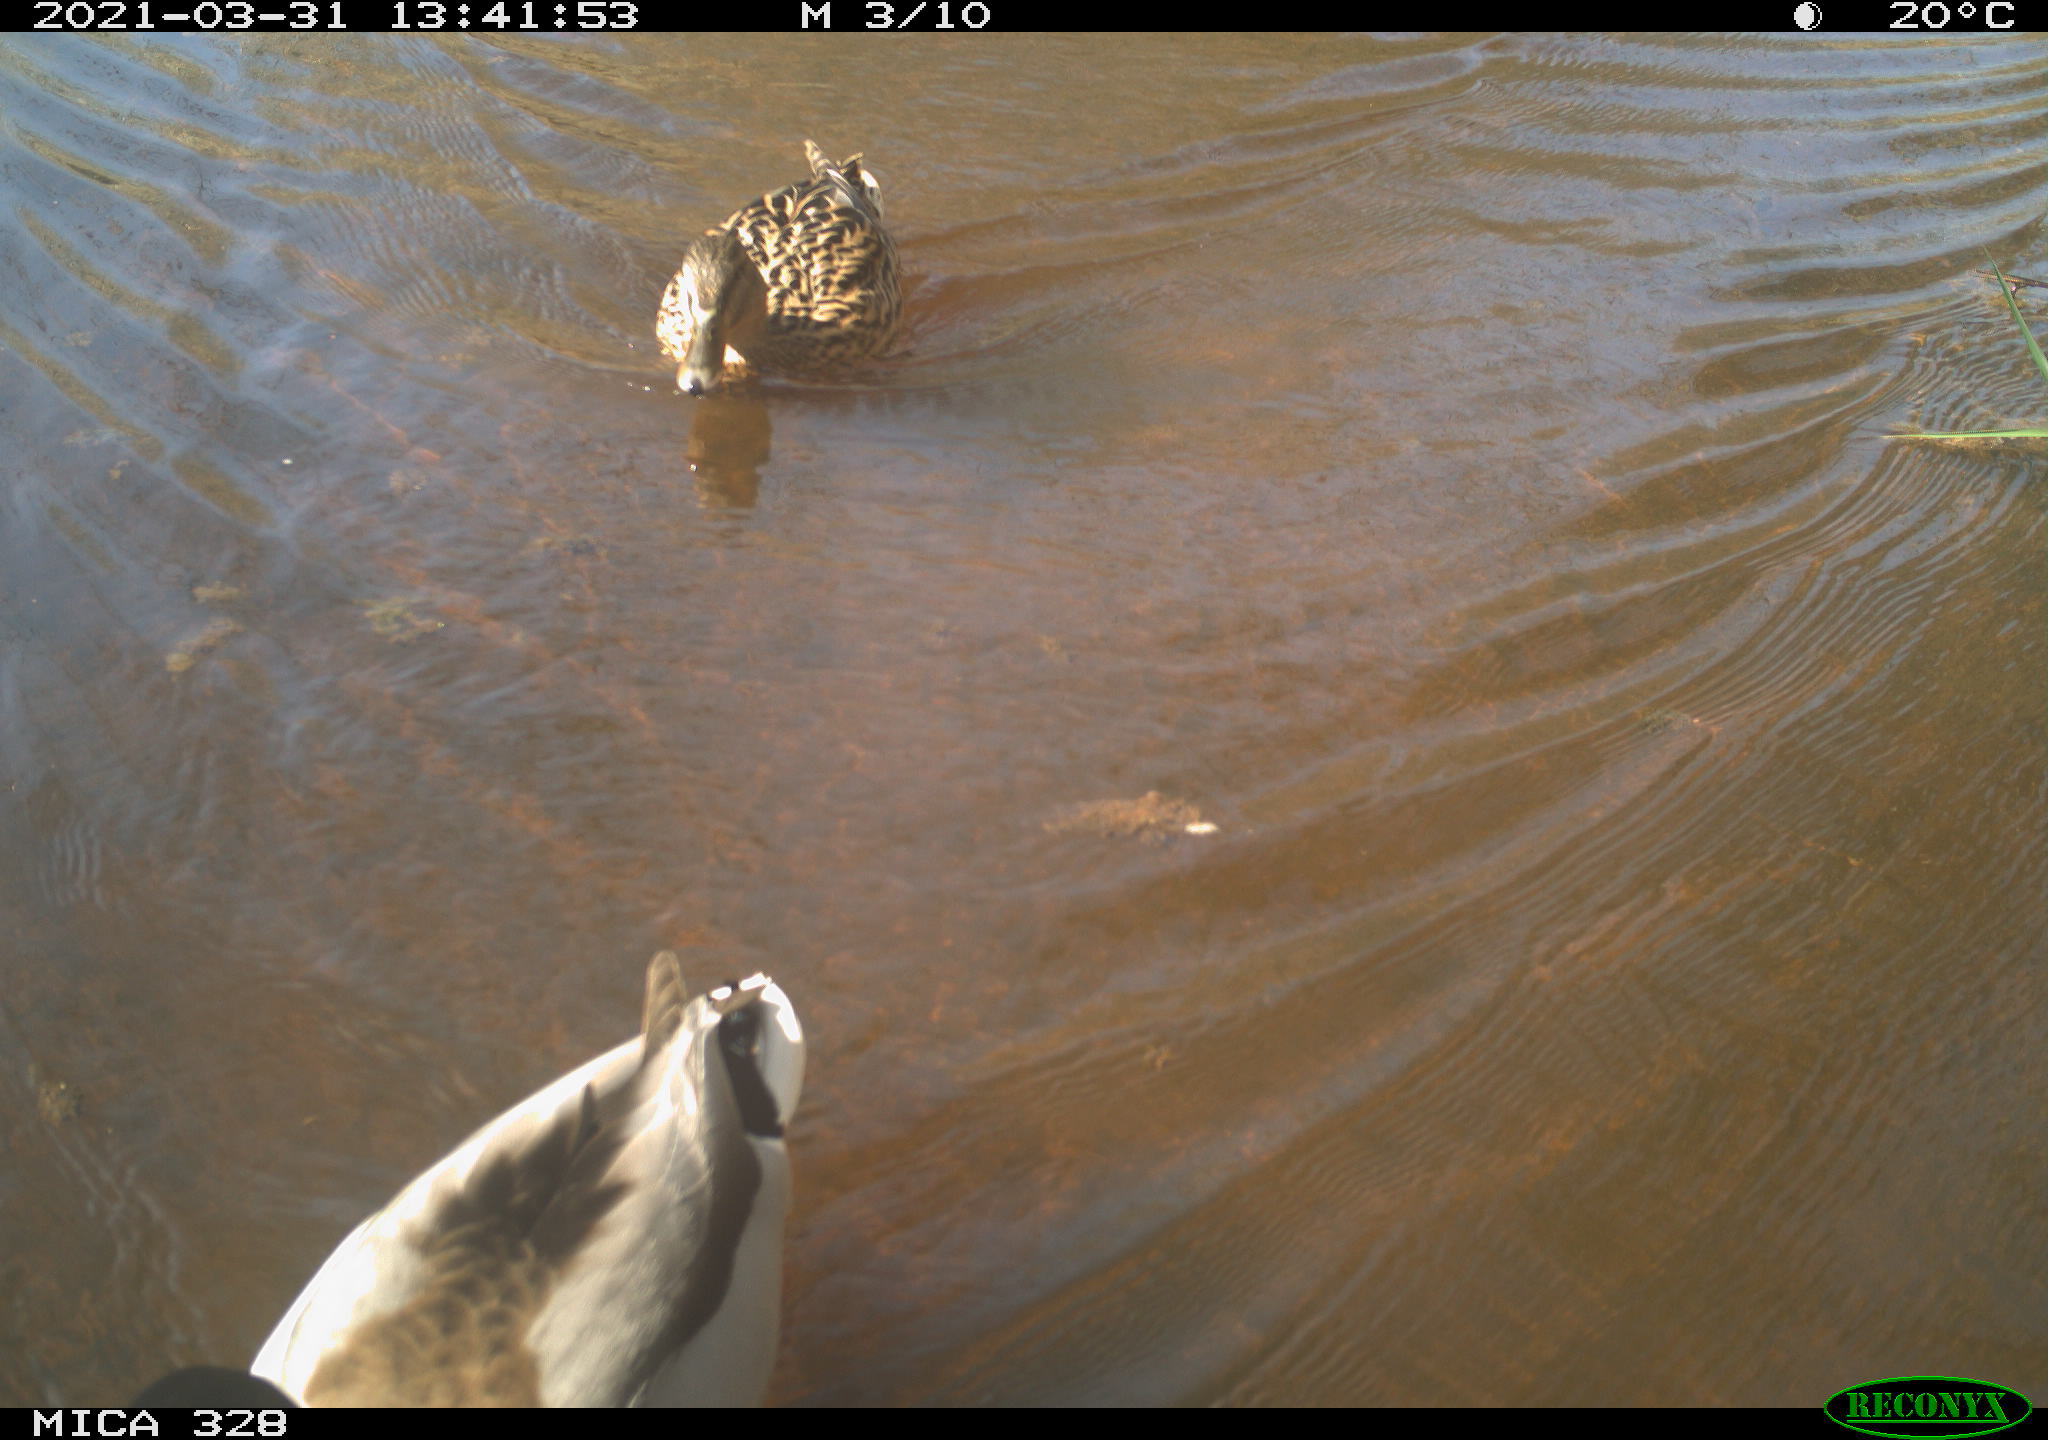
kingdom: Animalia
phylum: Chordata
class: Aves
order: Anseriformes
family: Anatidae
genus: Anas
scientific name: Anas platyrhynchos
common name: Mallard
